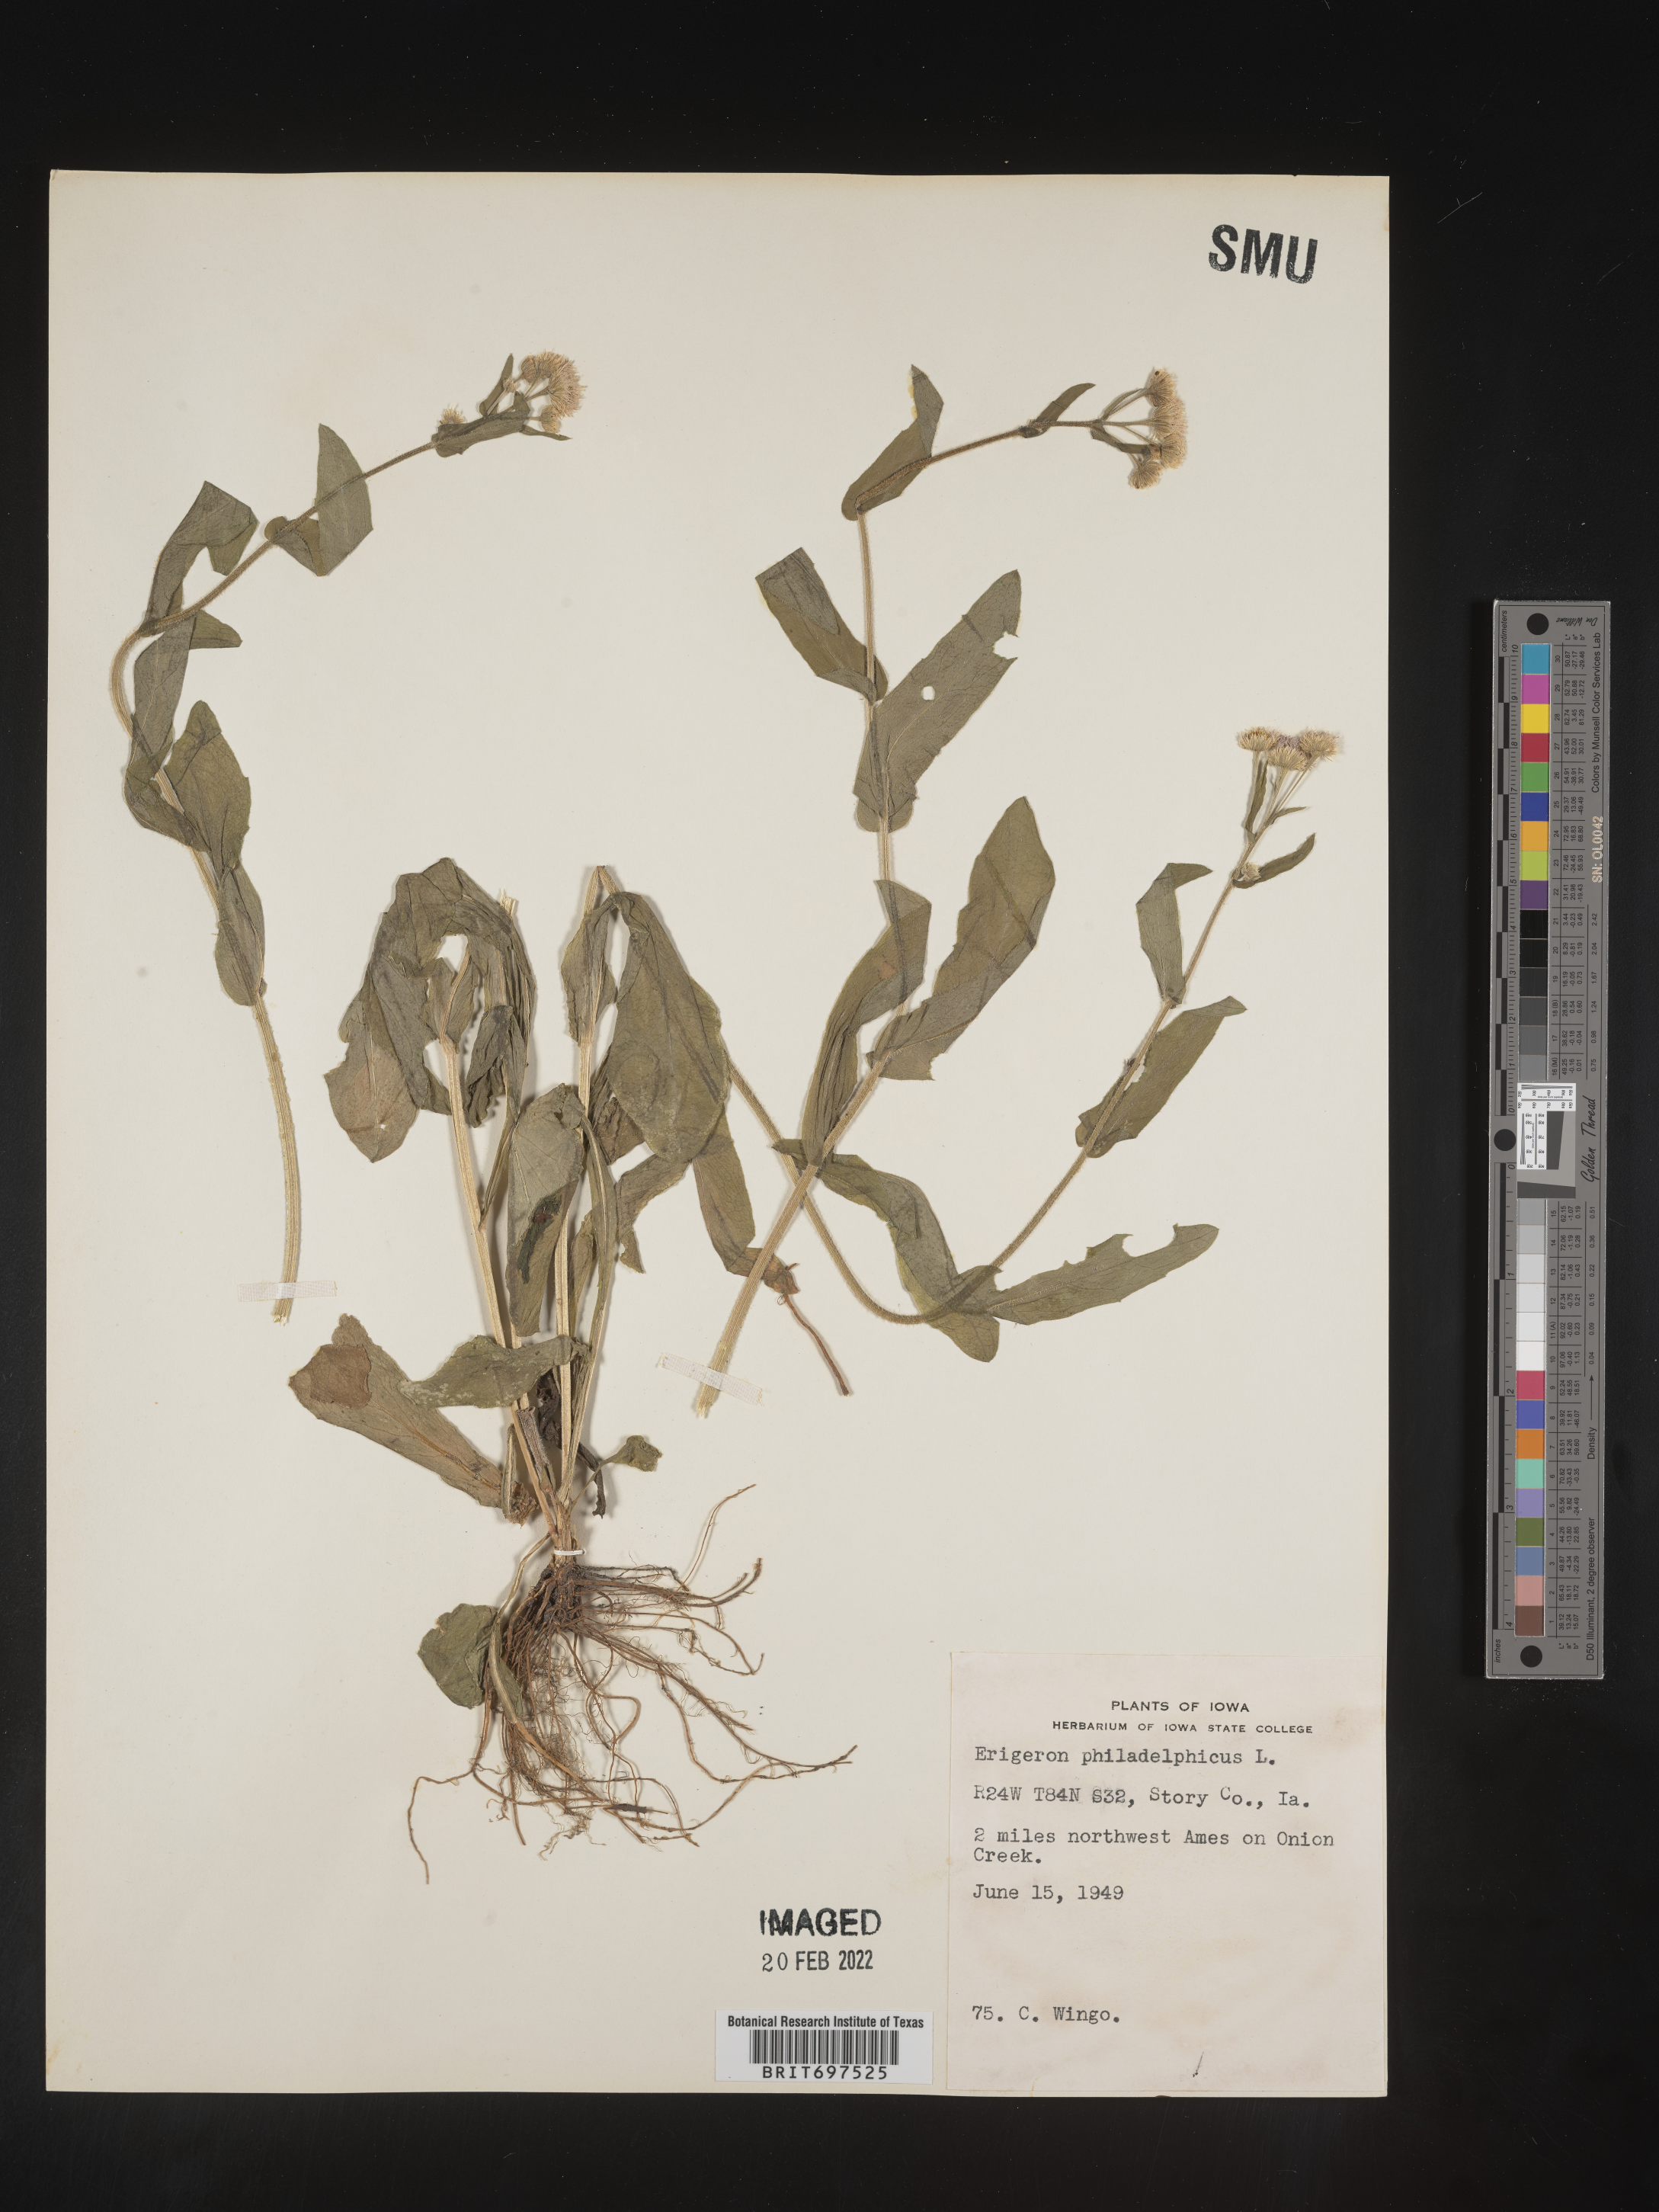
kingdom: Plantae
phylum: Tracheophyta
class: Magnoliopsida
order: Asterales
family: Asteraceae
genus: Erigeron
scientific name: Erigeron philadelphicus
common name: Robin's-plantain
